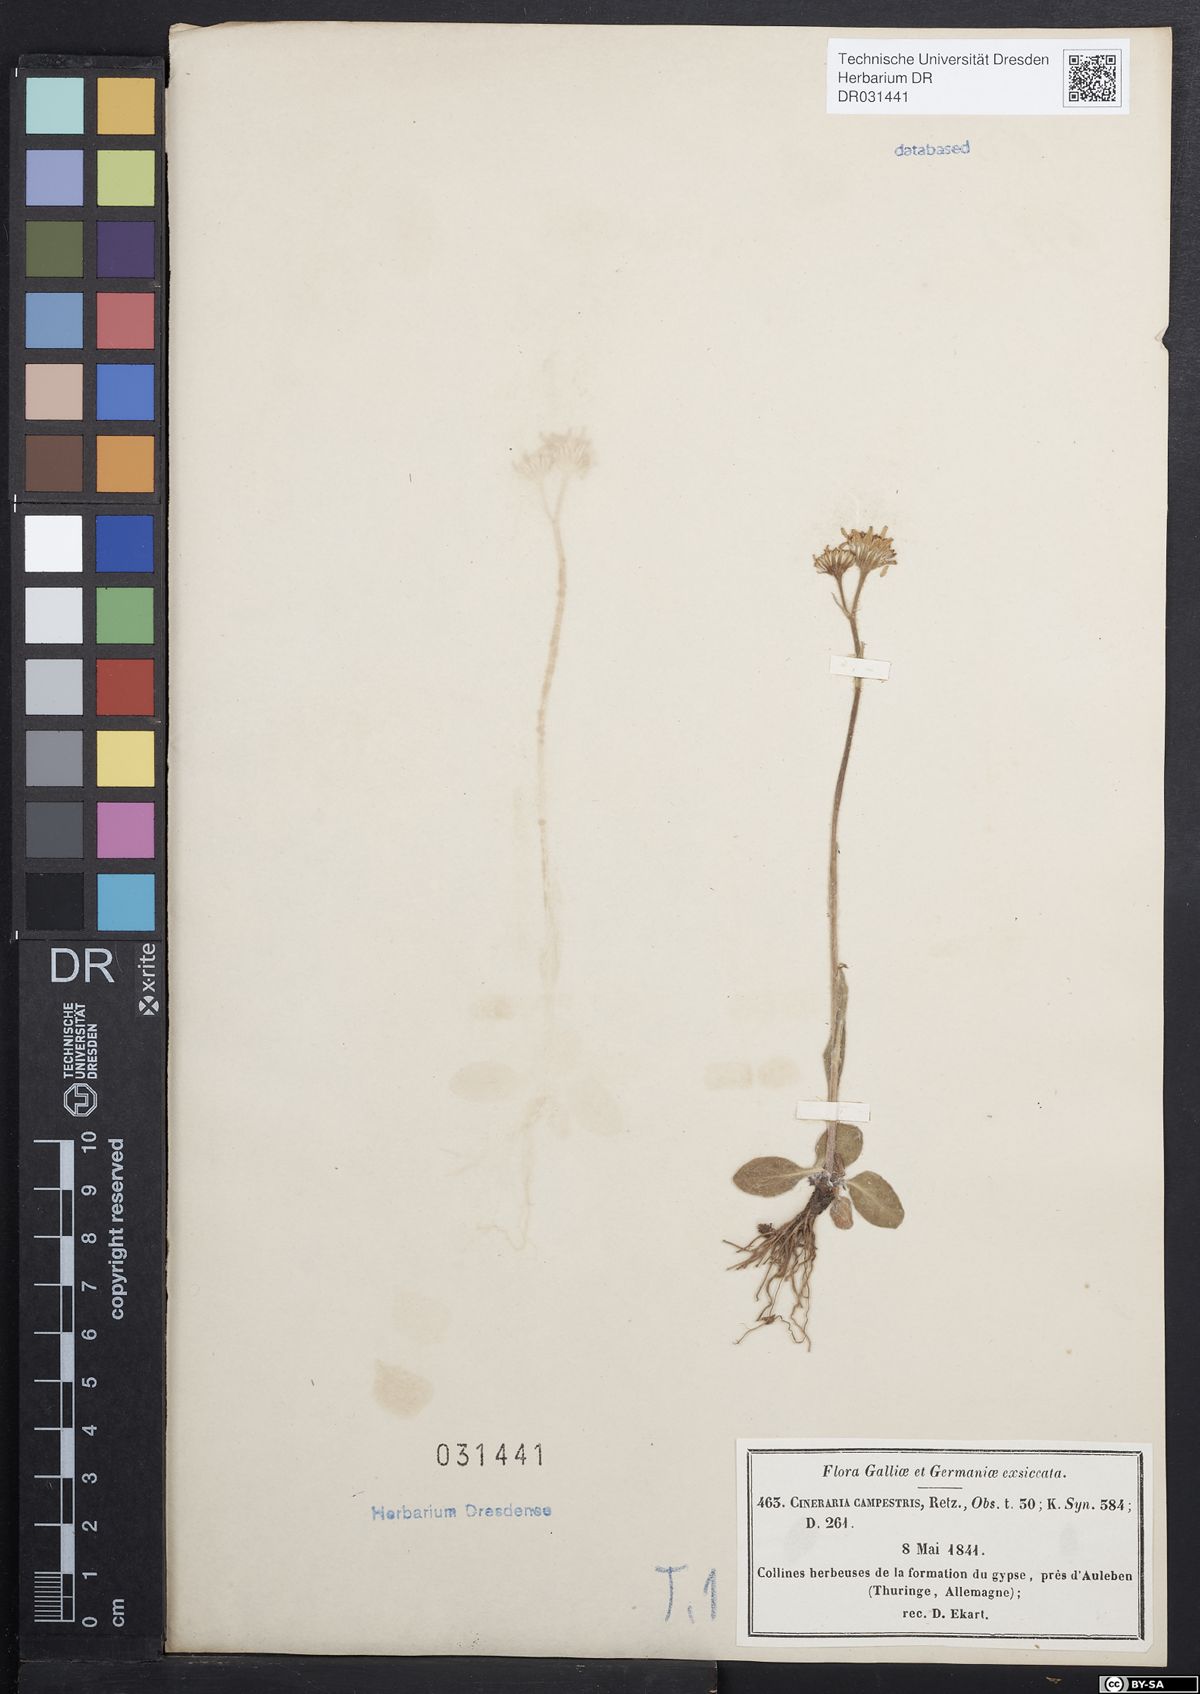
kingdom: Plantae
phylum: Tracheophyta
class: Magnoliopsida
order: Asterales
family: Asteraceae
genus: Tephroseris
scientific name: Tephroseris integrifolia
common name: Field fleawort
